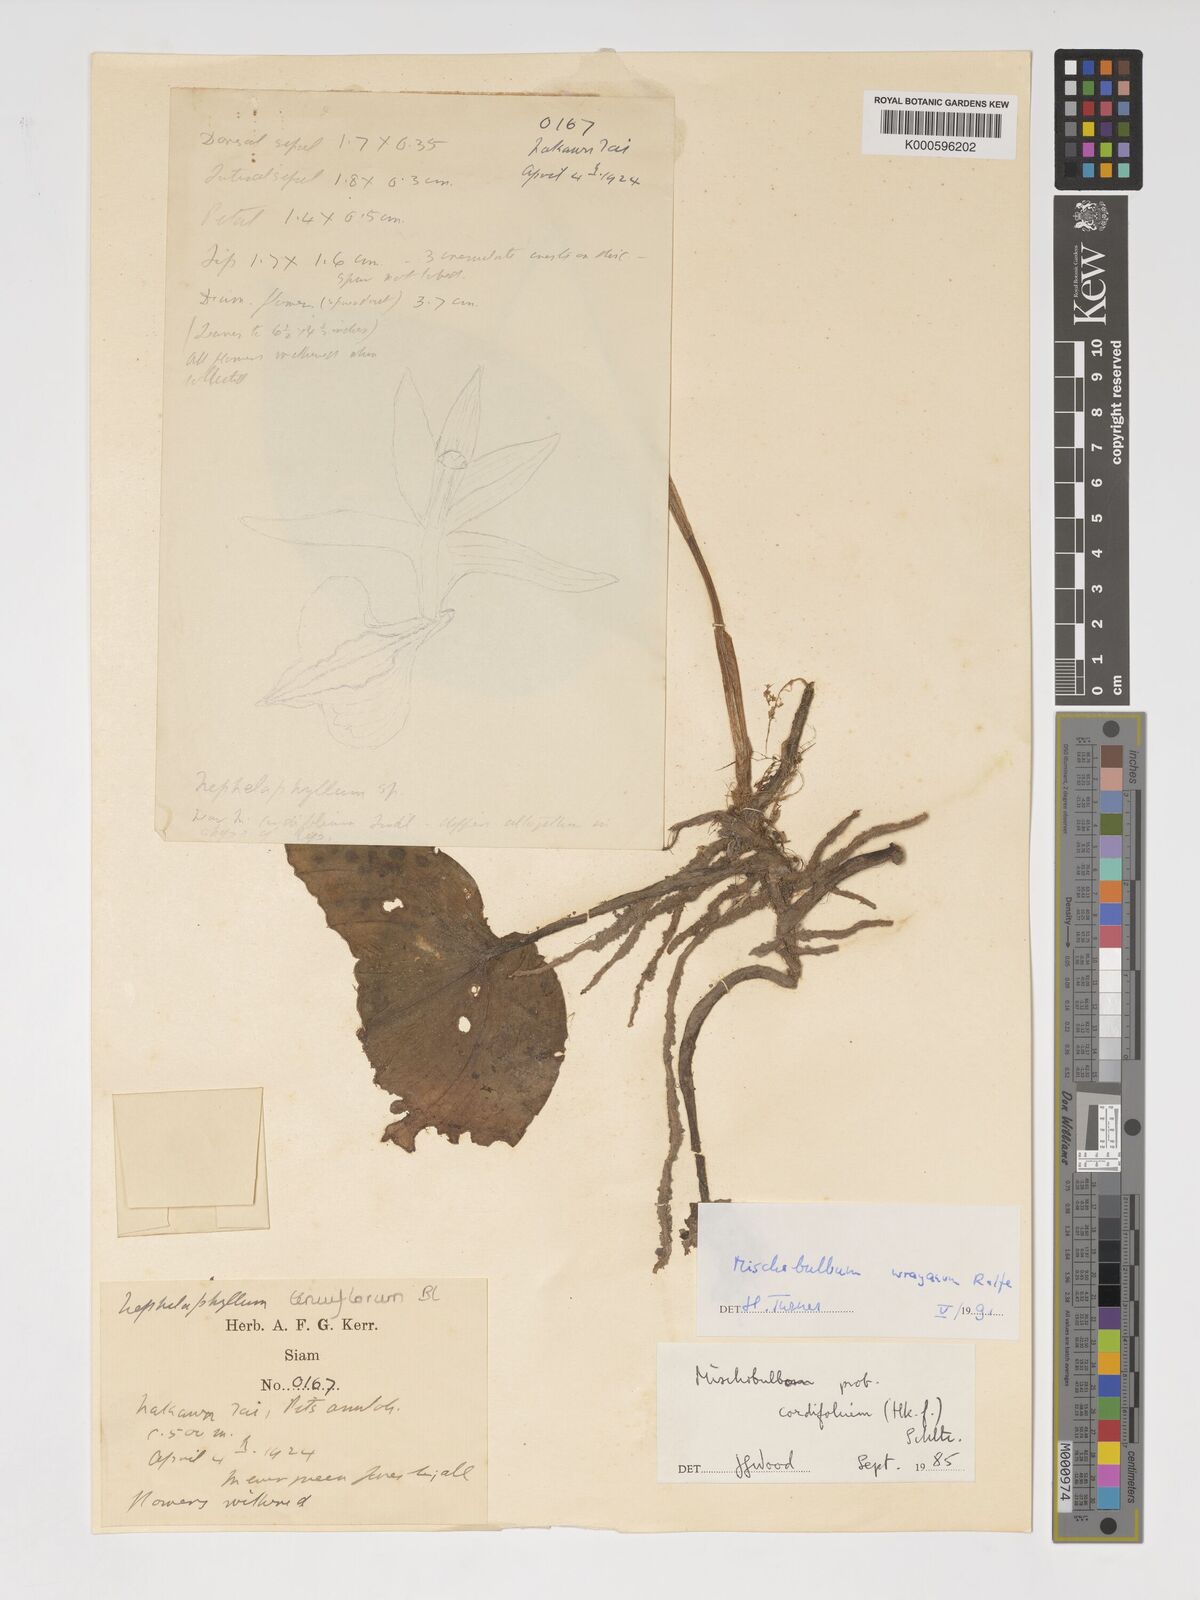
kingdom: Plantae
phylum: Tracheophyta
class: Liliopsida
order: Asparagales
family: Orchidaceae
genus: Tainia
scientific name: Tainia cordifolia
